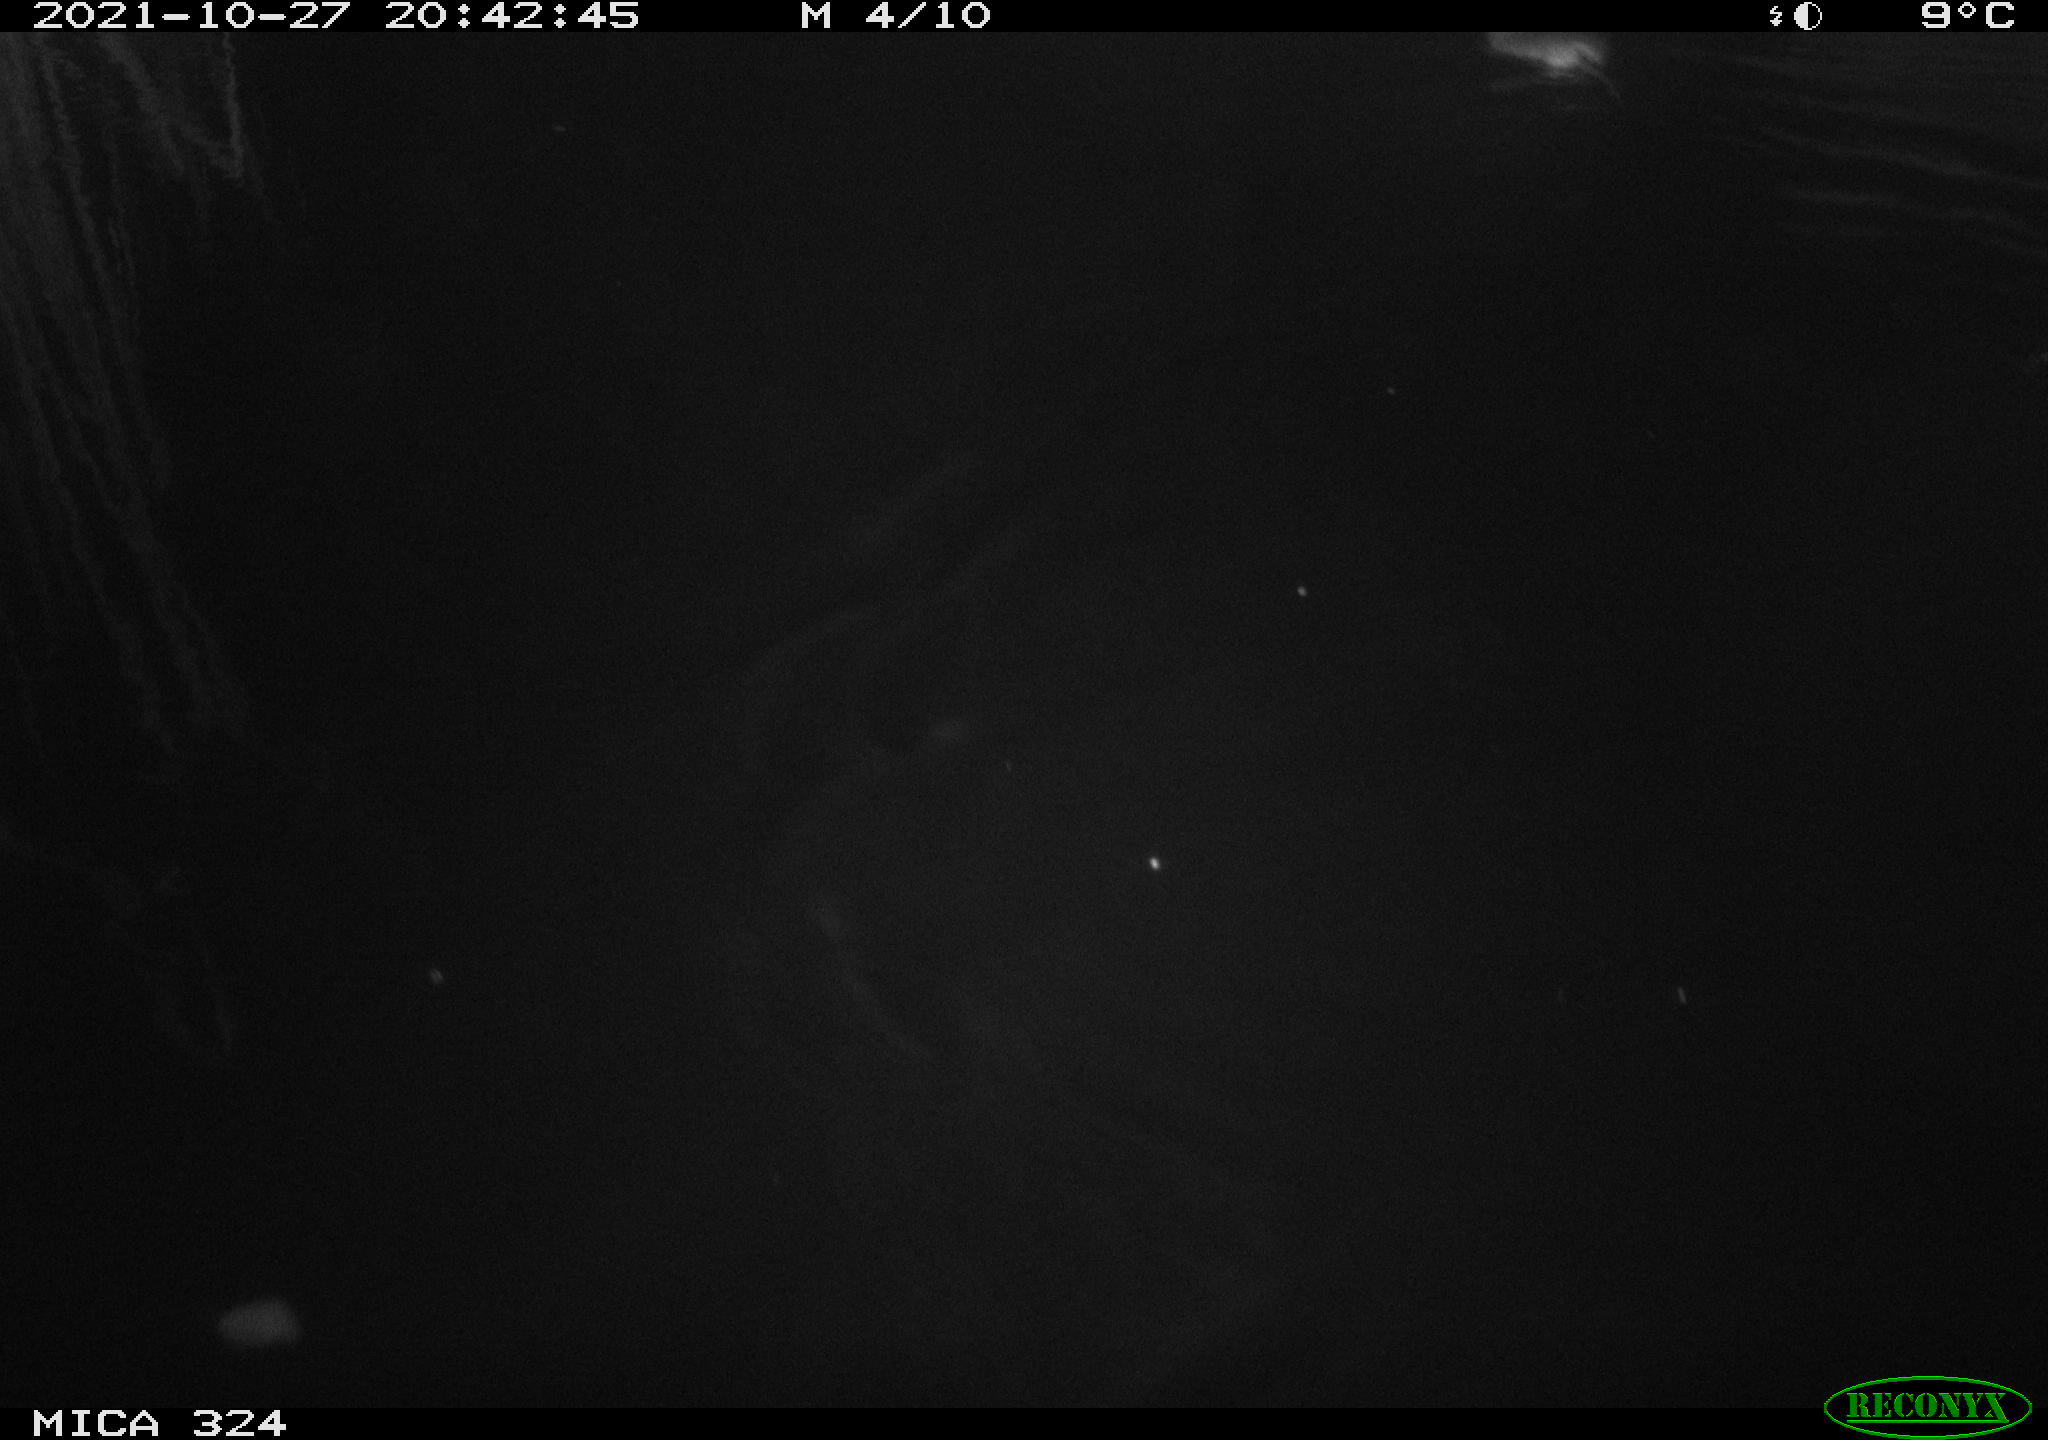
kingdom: Animalia
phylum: Chordata
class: Mammalia
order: Rodentia
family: Cricetidae
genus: Ondatra
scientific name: Ondatra zibethicus
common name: Muskrat
